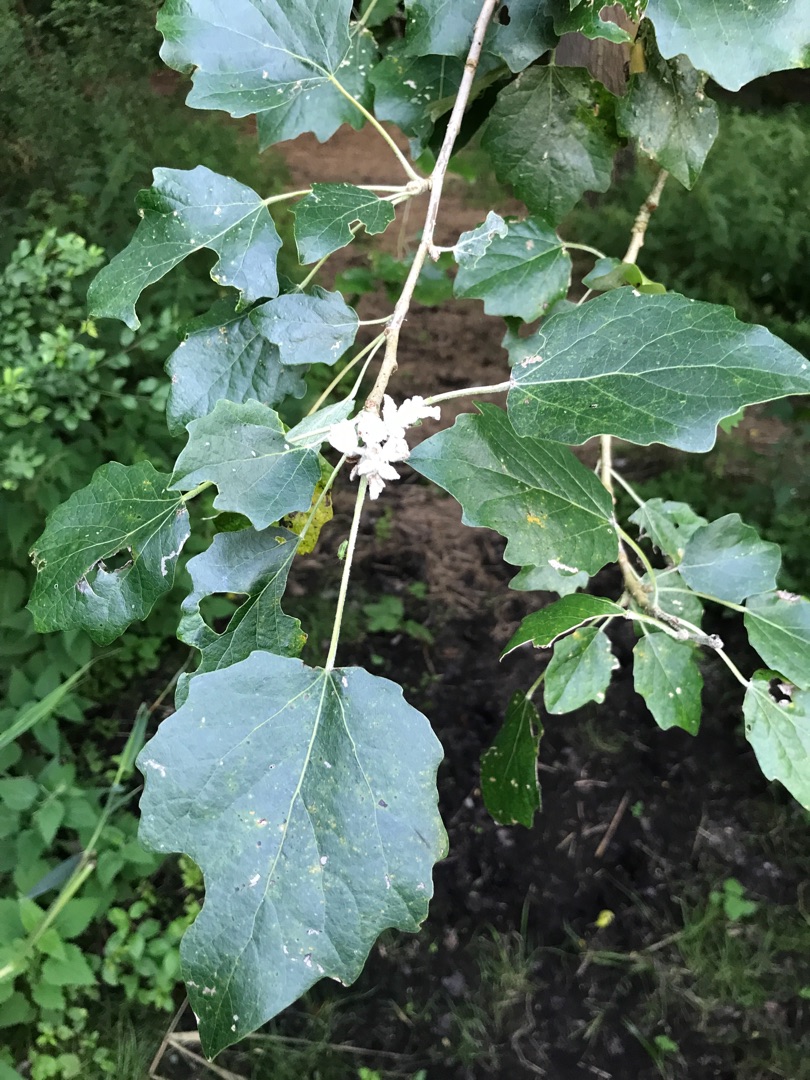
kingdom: Plantae
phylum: Tracheophyta
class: Magnoliopsida
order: Malpighiales
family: Salicaceae
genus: Populus
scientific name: Populus canescens
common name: Grå-poppel
